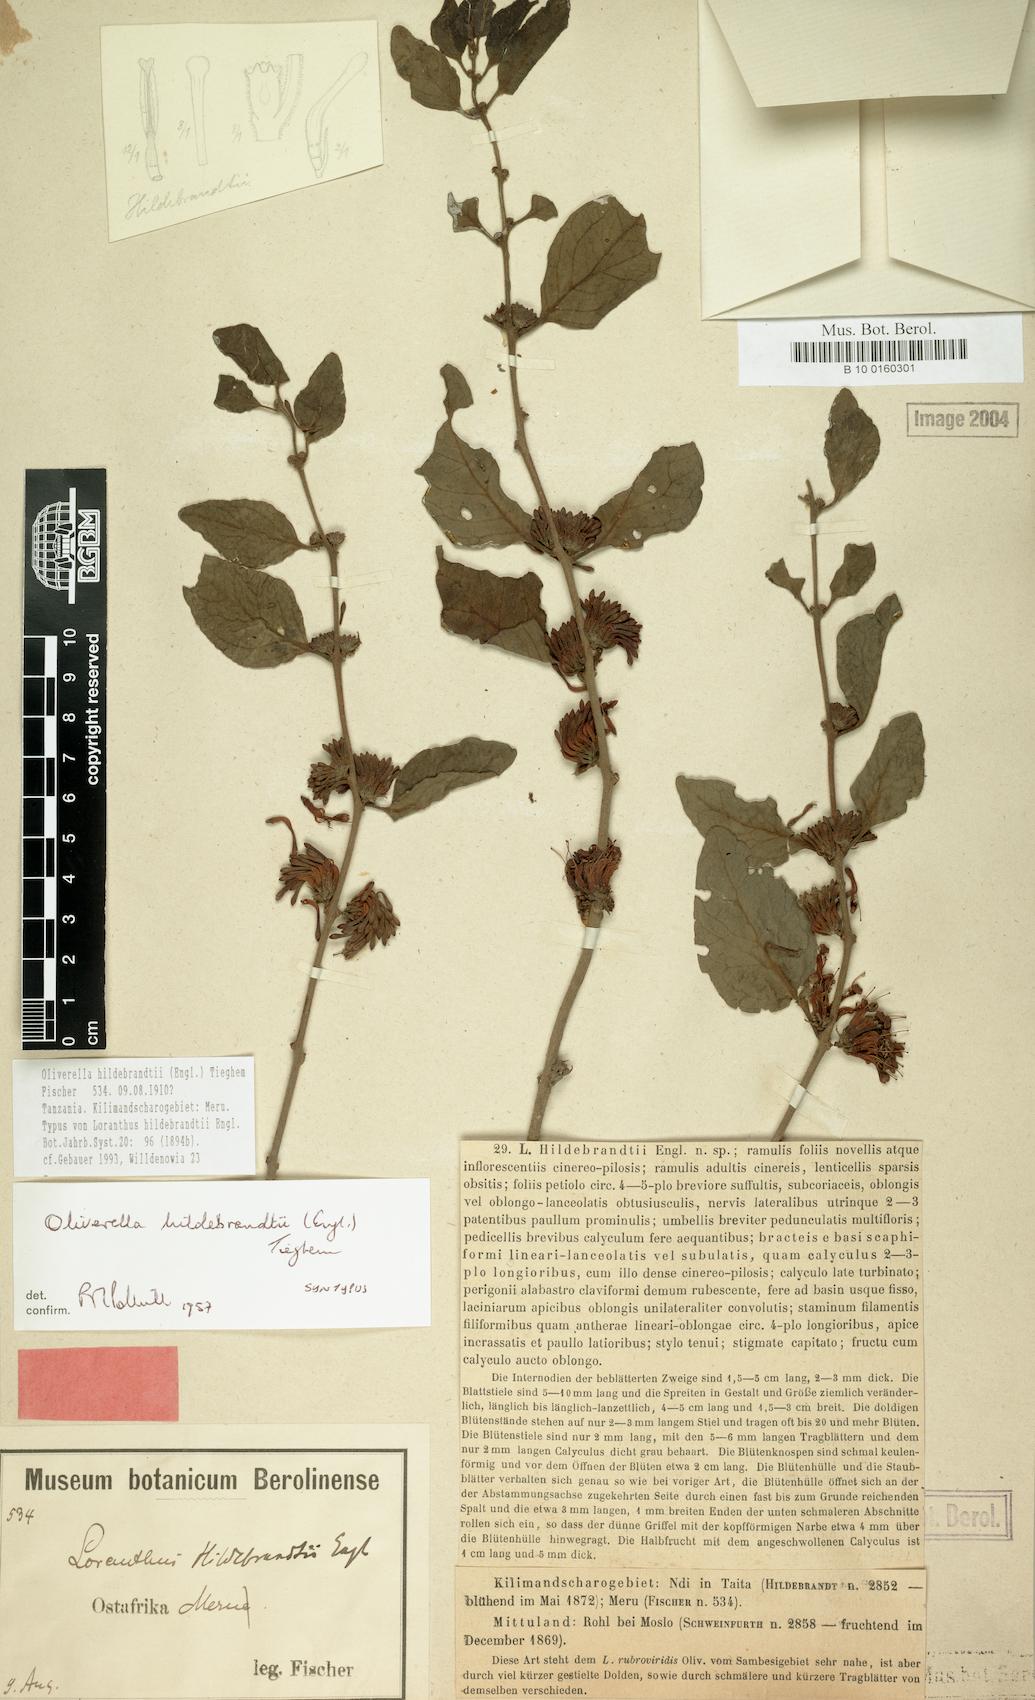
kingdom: Plantae
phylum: Tracheophyta
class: Magnoliopsida
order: Santalales
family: Loranthaceae
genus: Oliverella
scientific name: Oliverella hildebrandtii
